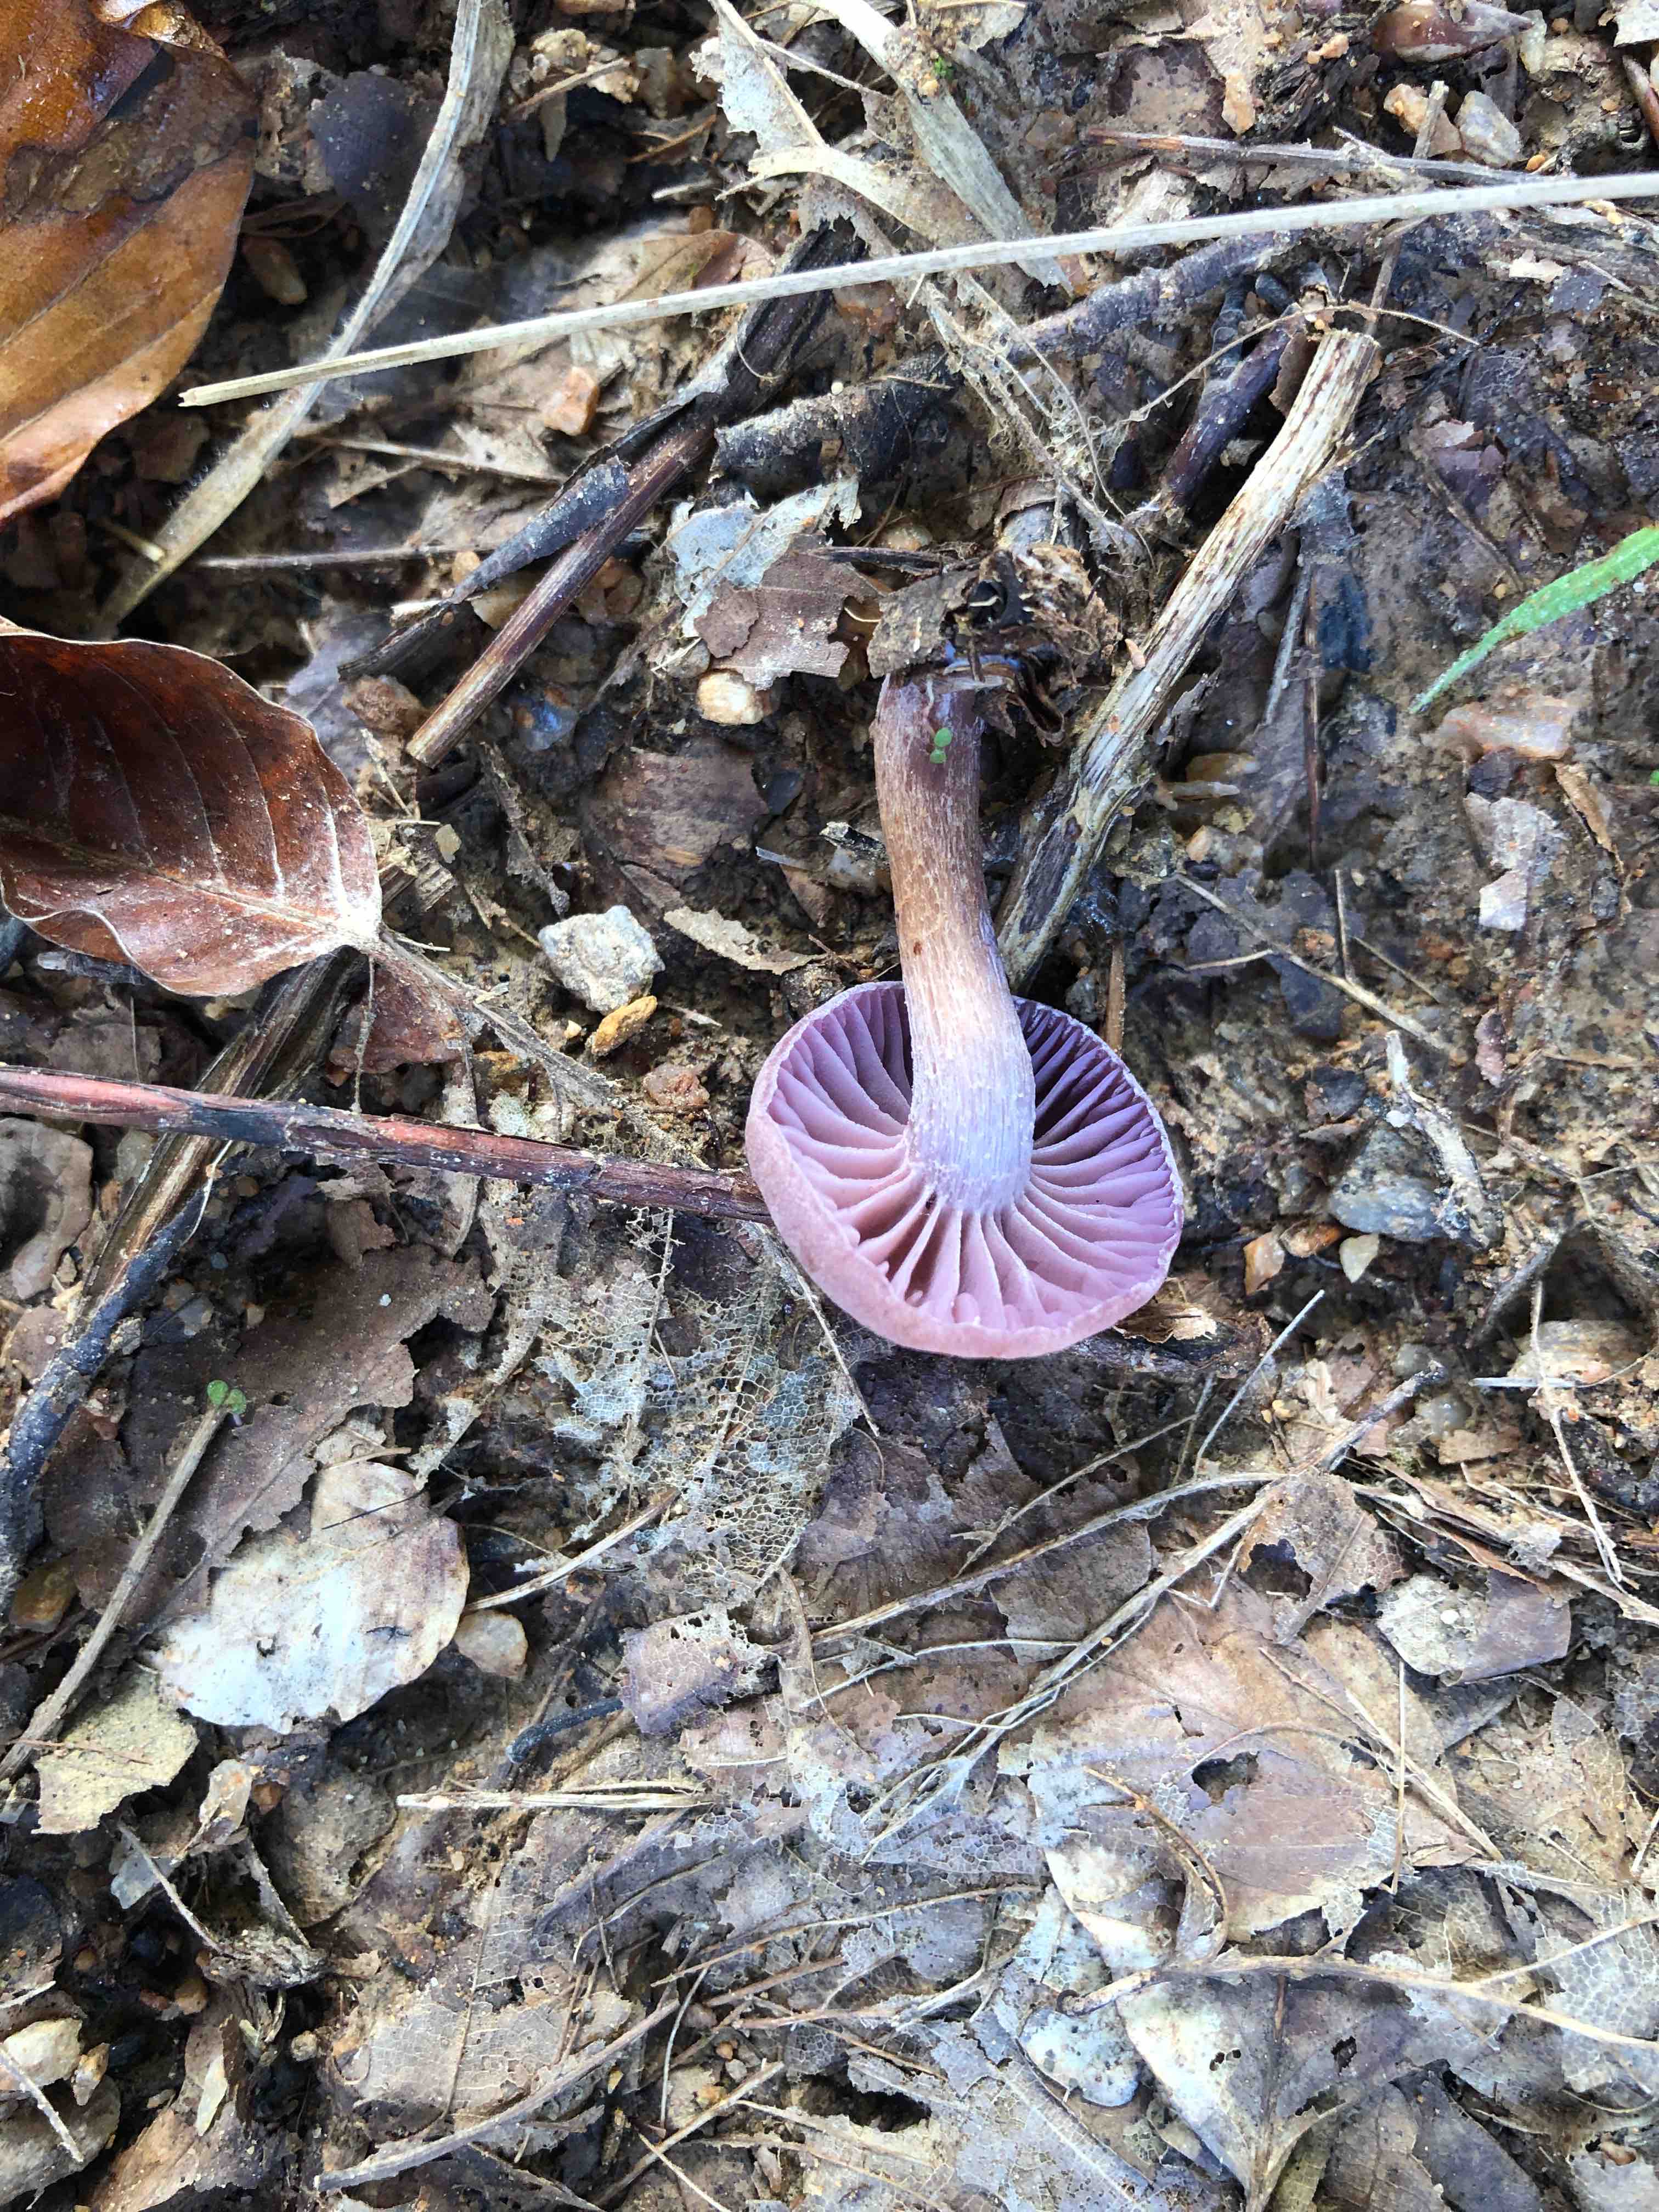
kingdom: Fungi
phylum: Basidiomycota
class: Agaricomycetes
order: Agaricales
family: Hydnangiaceae
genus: Laccaria
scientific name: Laccaria amethystina
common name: violet ametysthat
